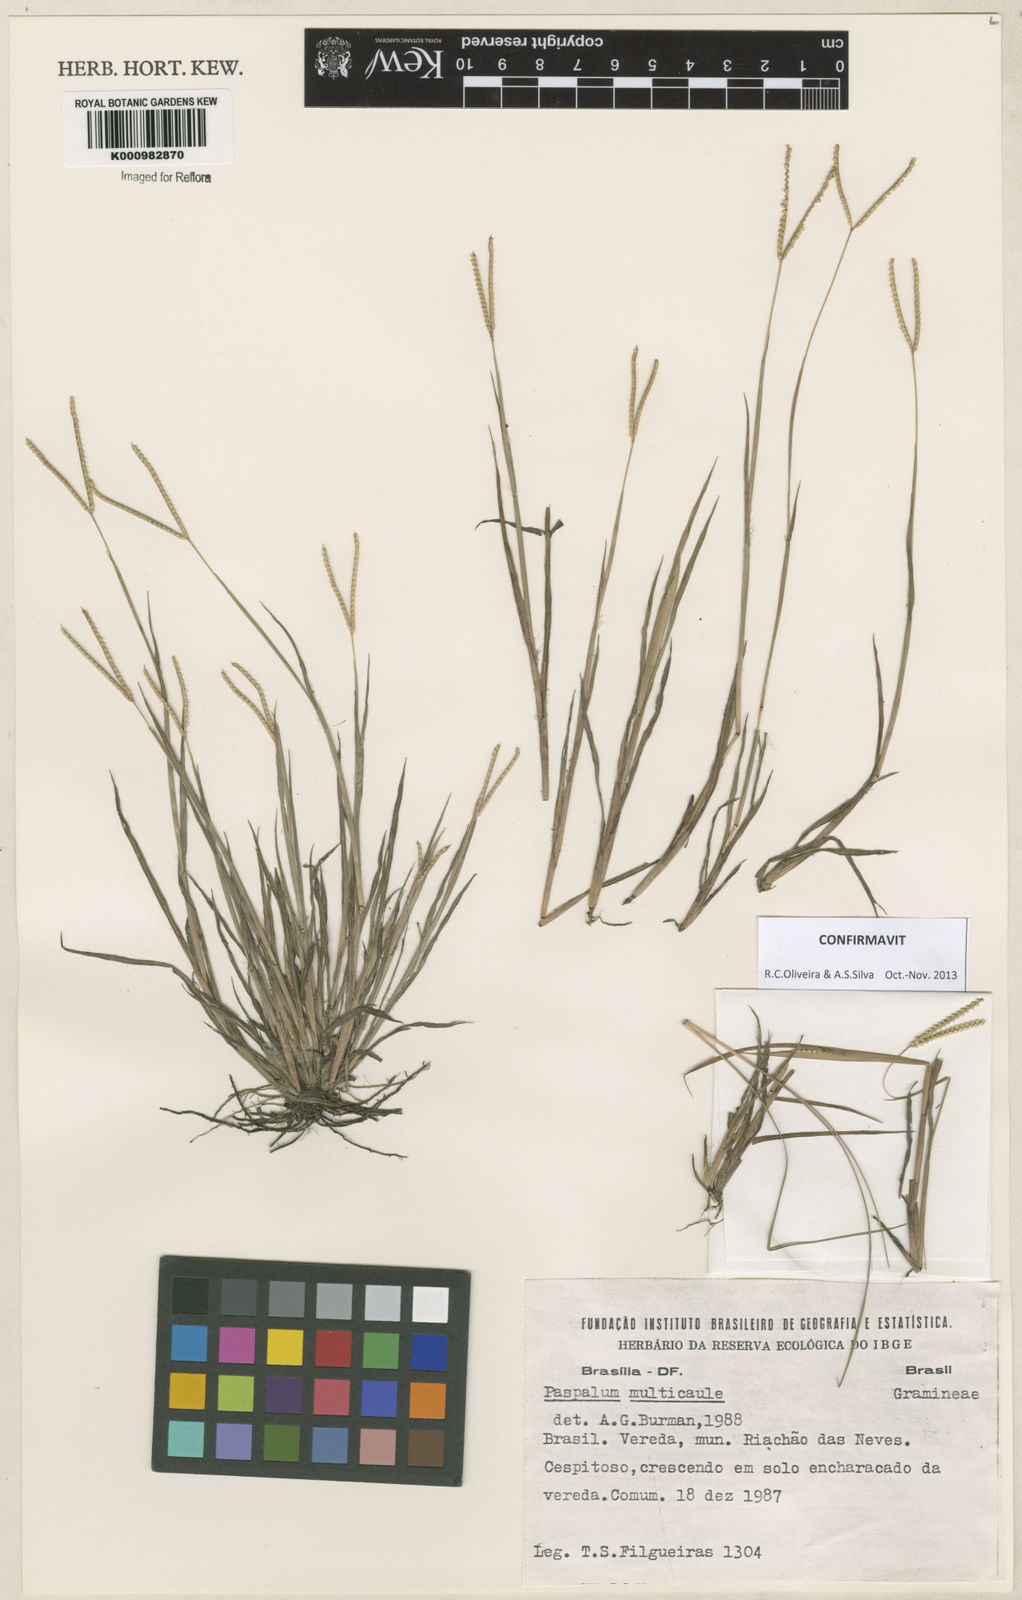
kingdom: Plantae
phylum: Tracheophyta
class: Liliopsida
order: Poales
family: Poaceae
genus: Paspalum
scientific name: Paspalum multicaule
